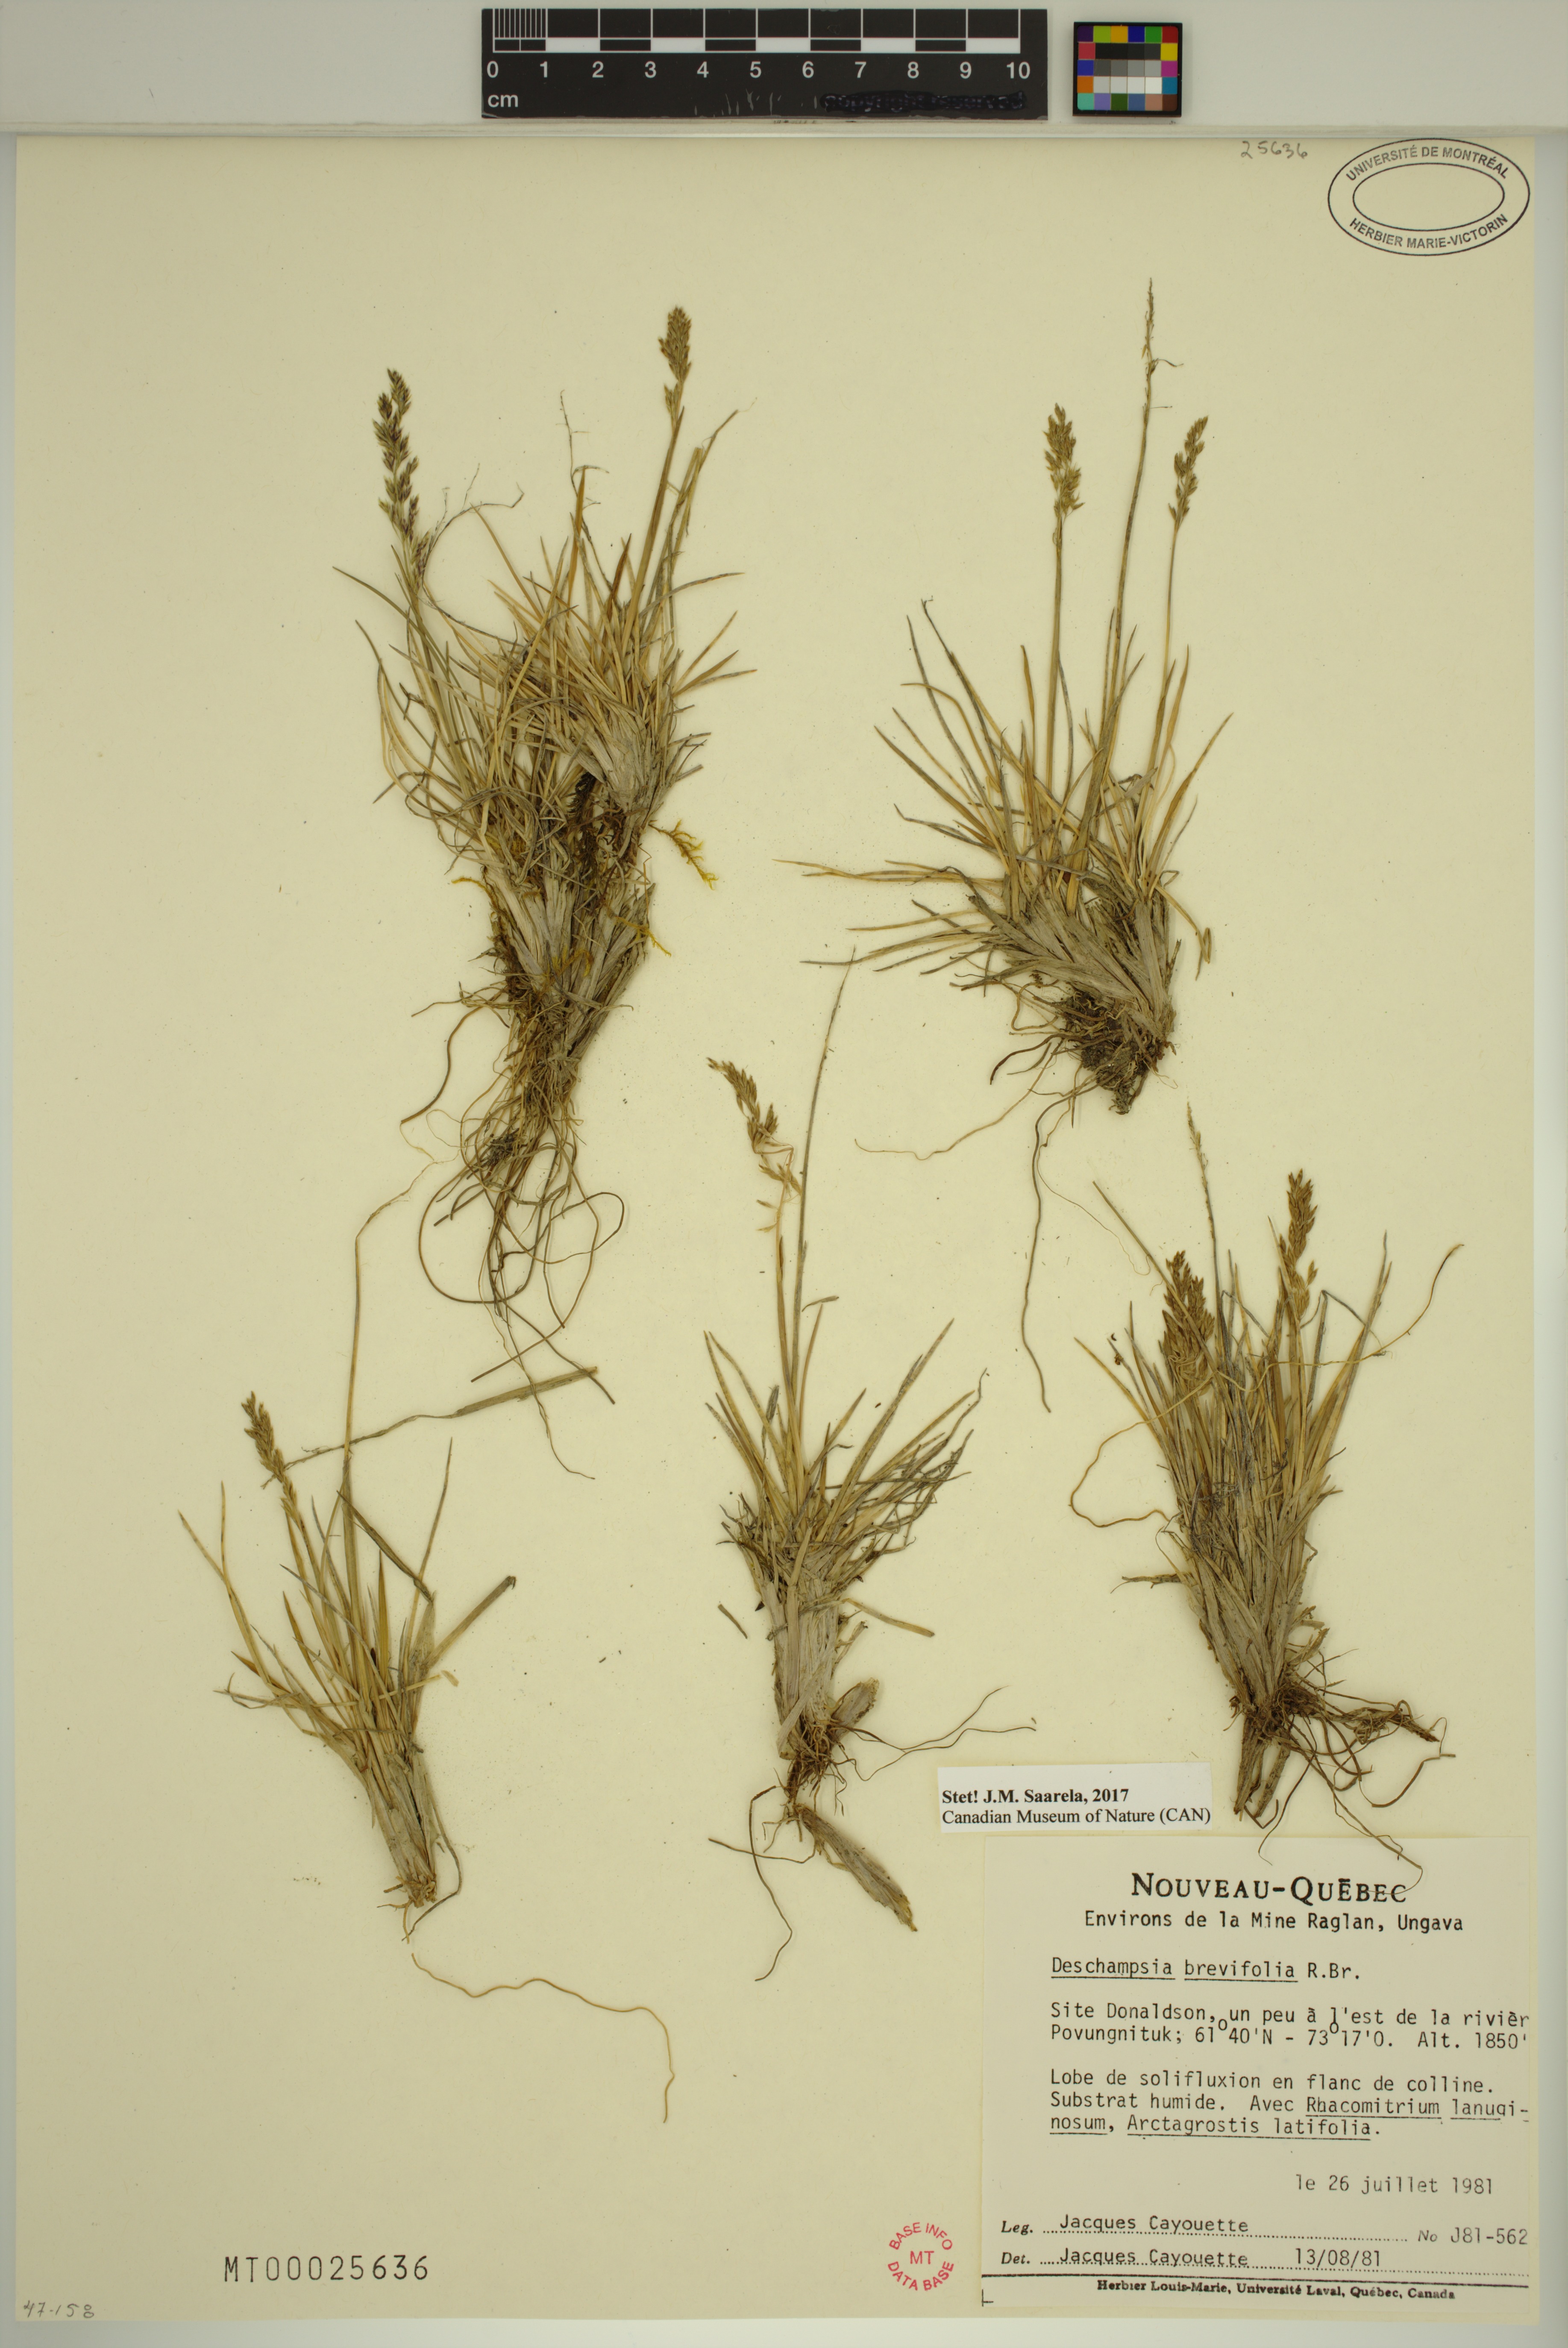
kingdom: Plantae
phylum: Tracheophyta
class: Liliopsida
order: Poales
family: Poaceae
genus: Deschampsia
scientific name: Deschampsia cespitosa
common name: Tufted hair-grass
